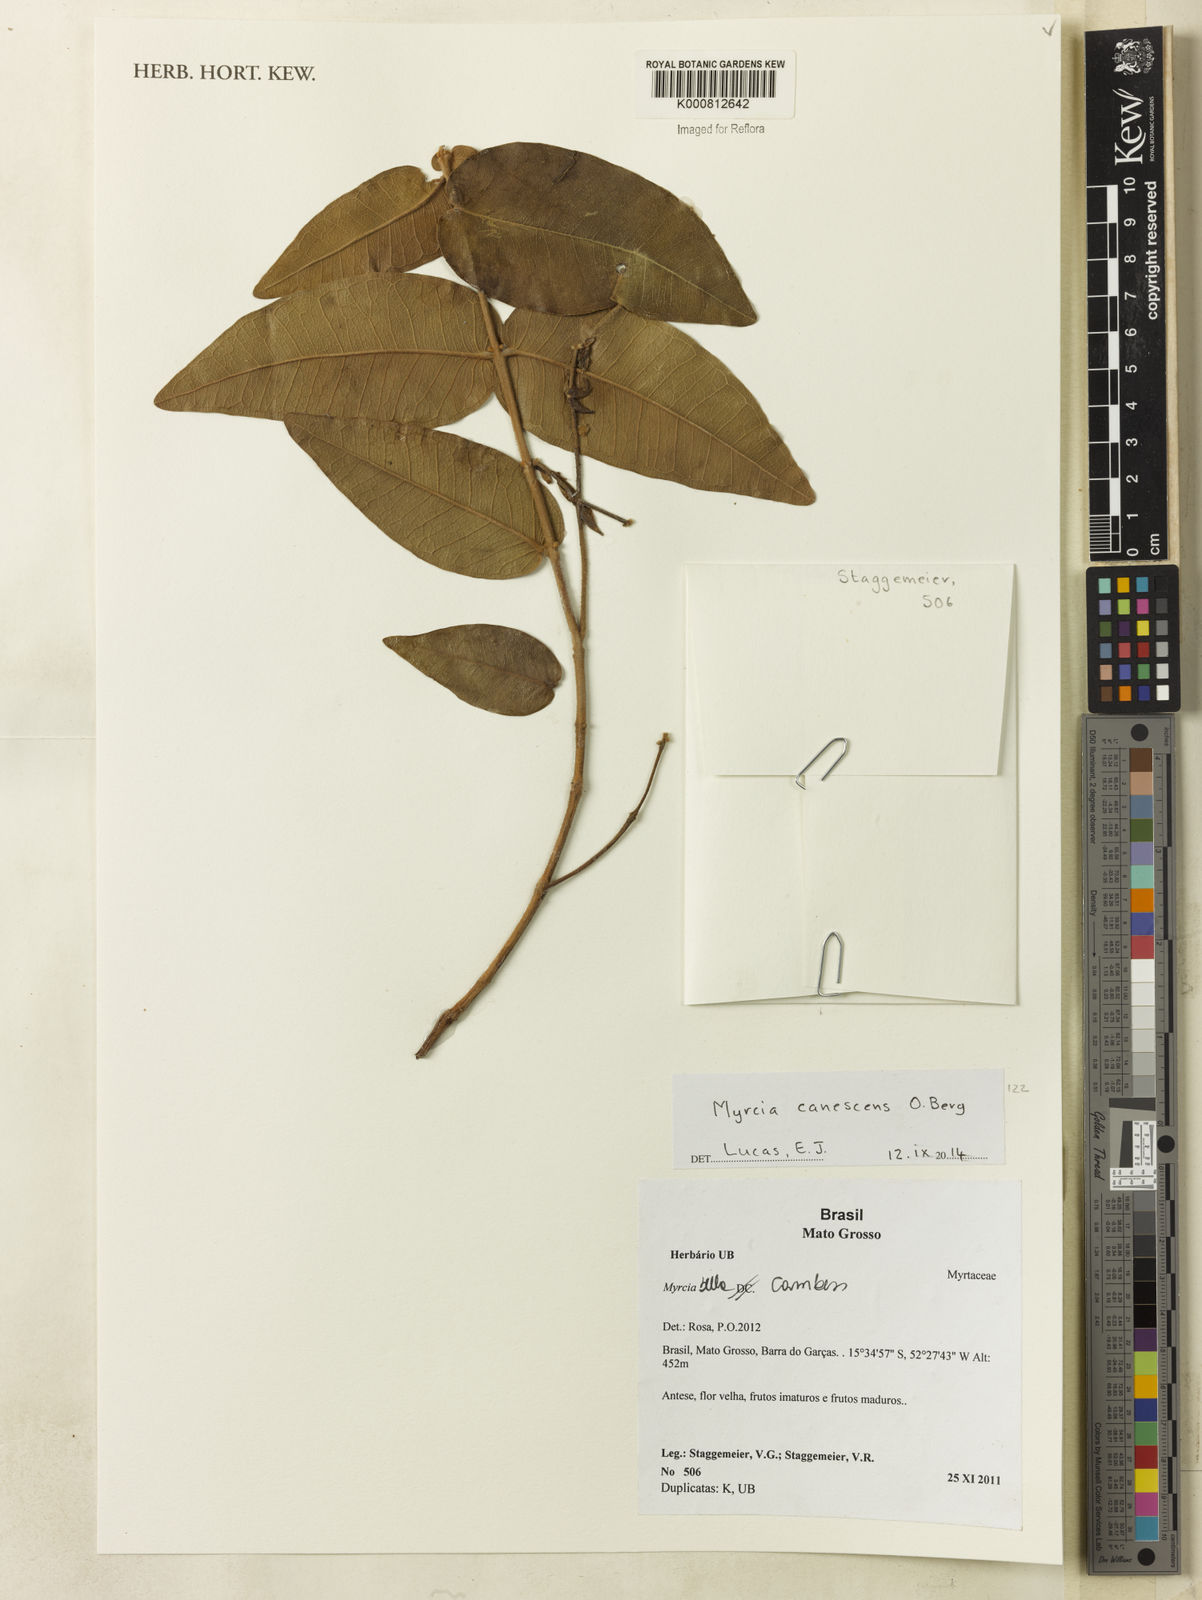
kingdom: Plantae
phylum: Tracheophyta
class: Magnoliopsida
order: Myrtales
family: Myrtaceae
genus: Myrcia
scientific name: Myrcia canescens
